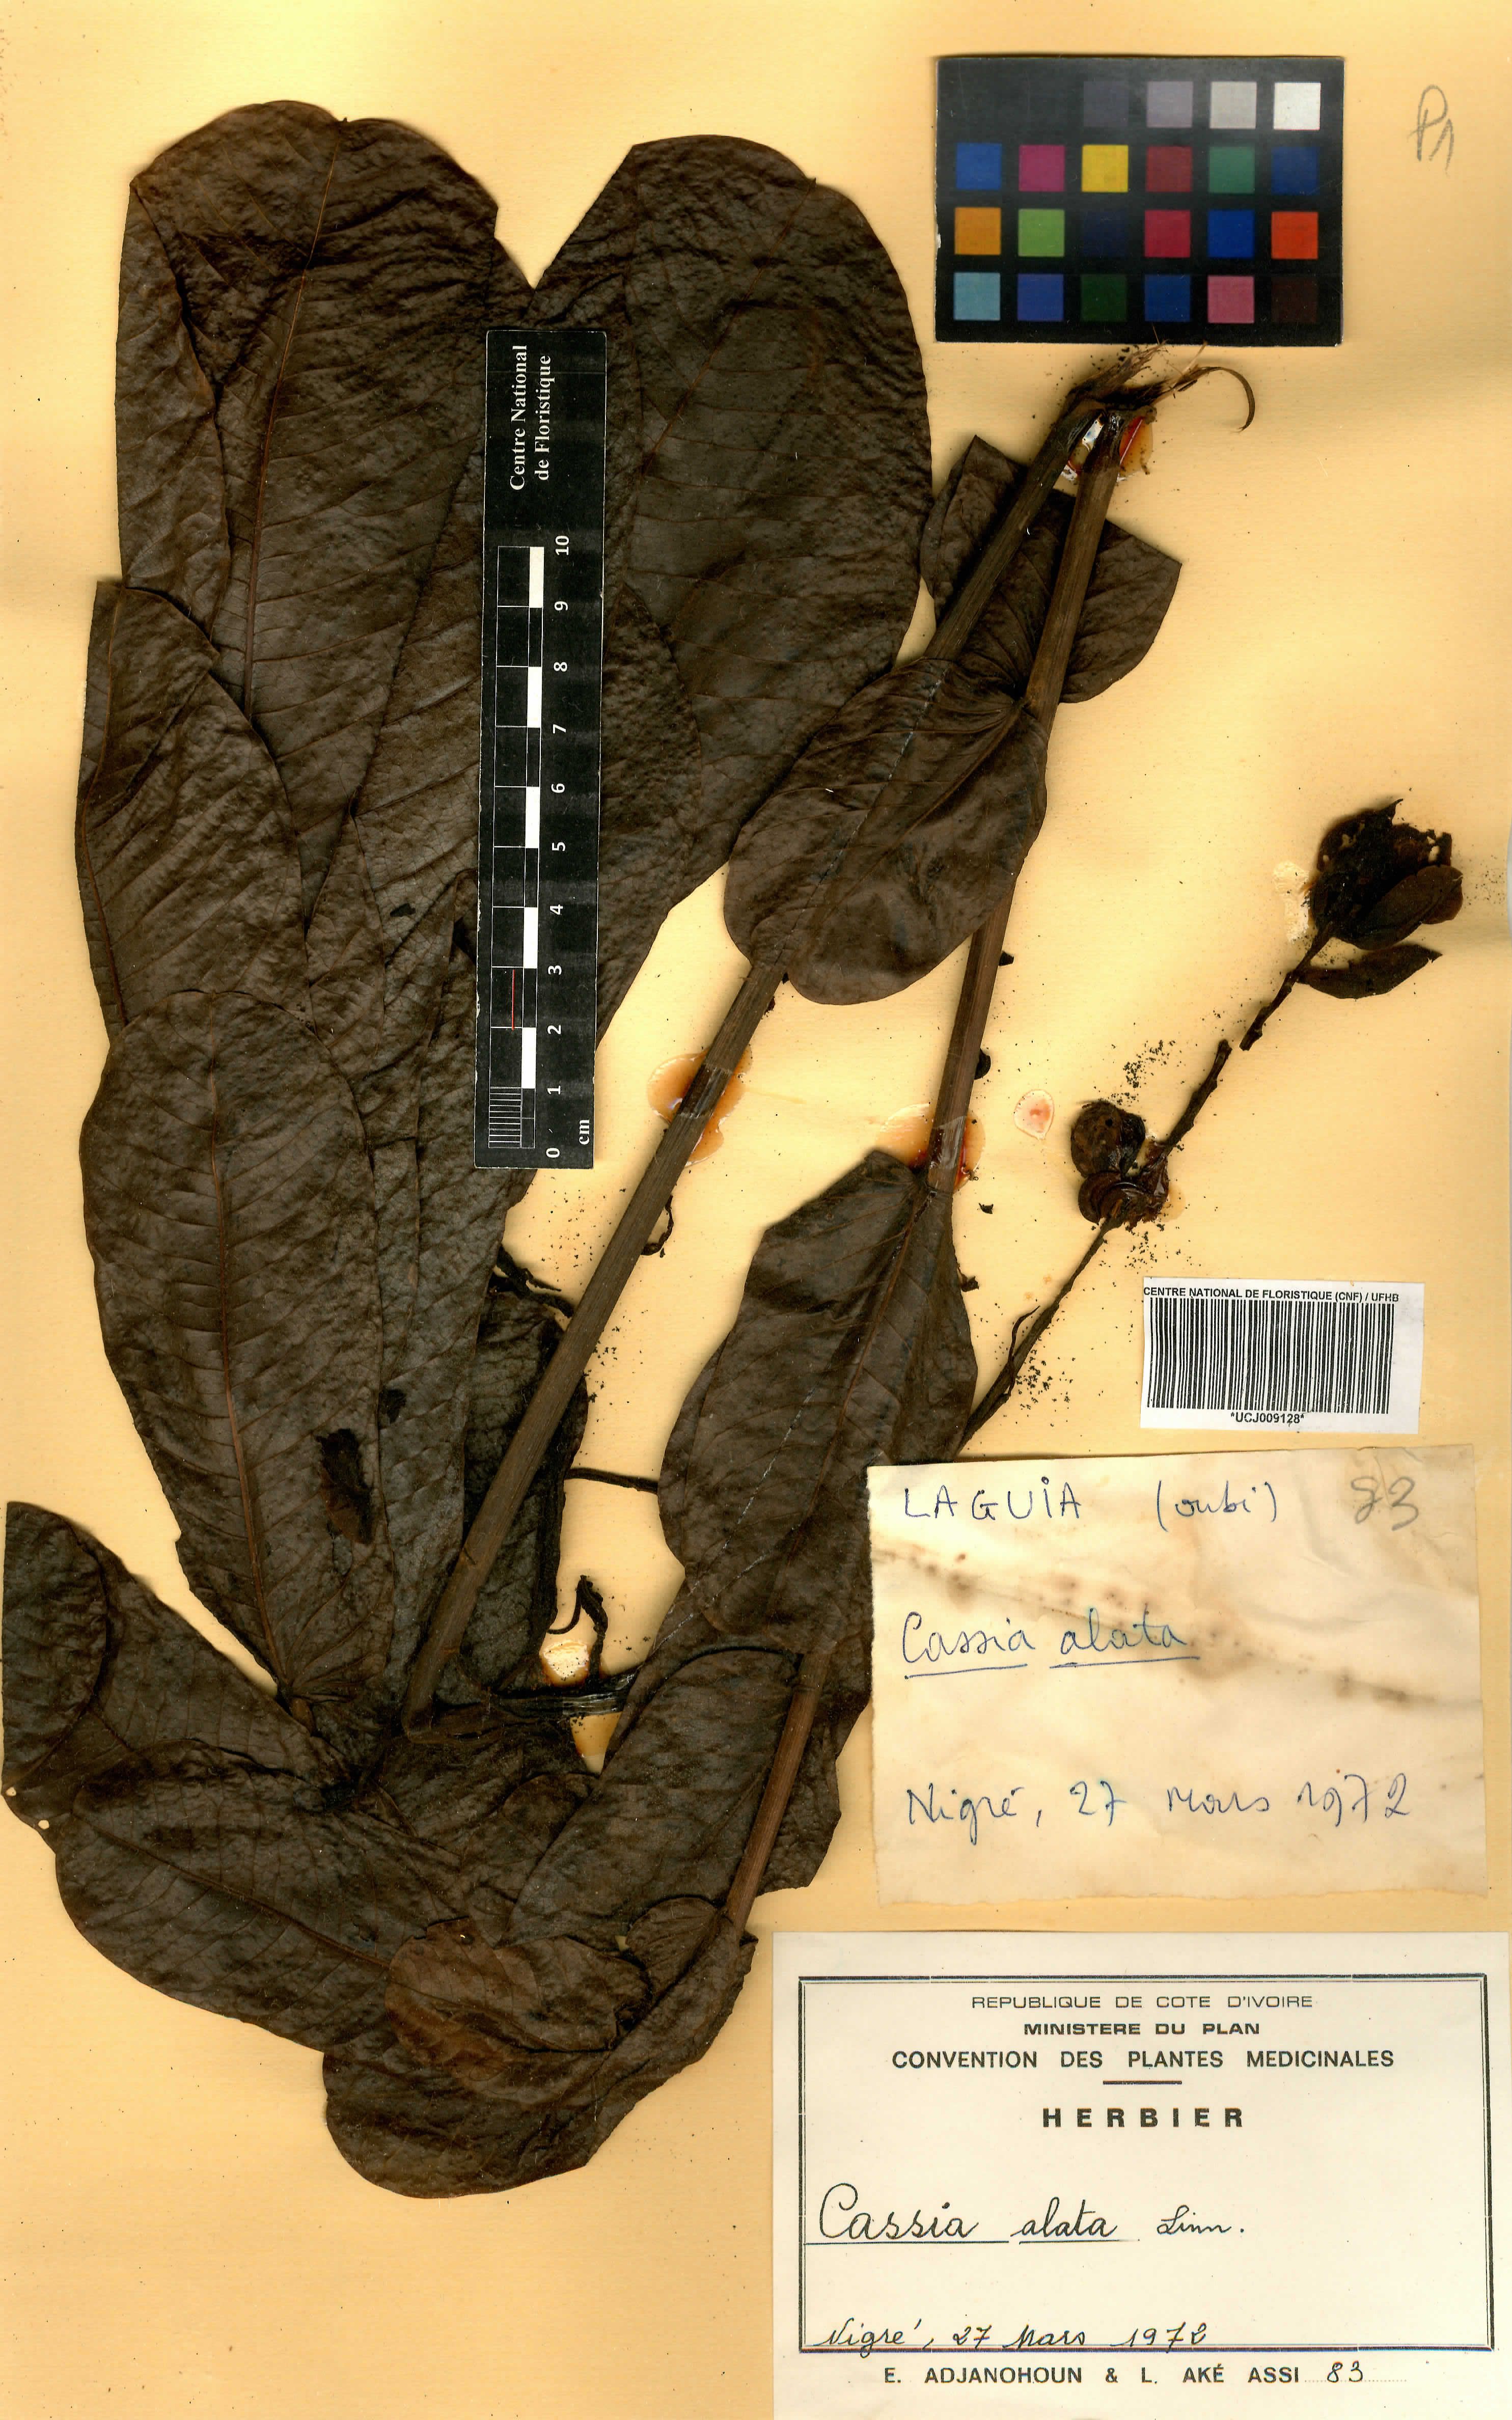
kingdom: Plantae
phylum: Tracheophyta
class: Magnoliopsida
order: Fabales
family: Fabaceae
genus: Senna
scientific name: Senna alata
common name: Emperor's candlesticks
